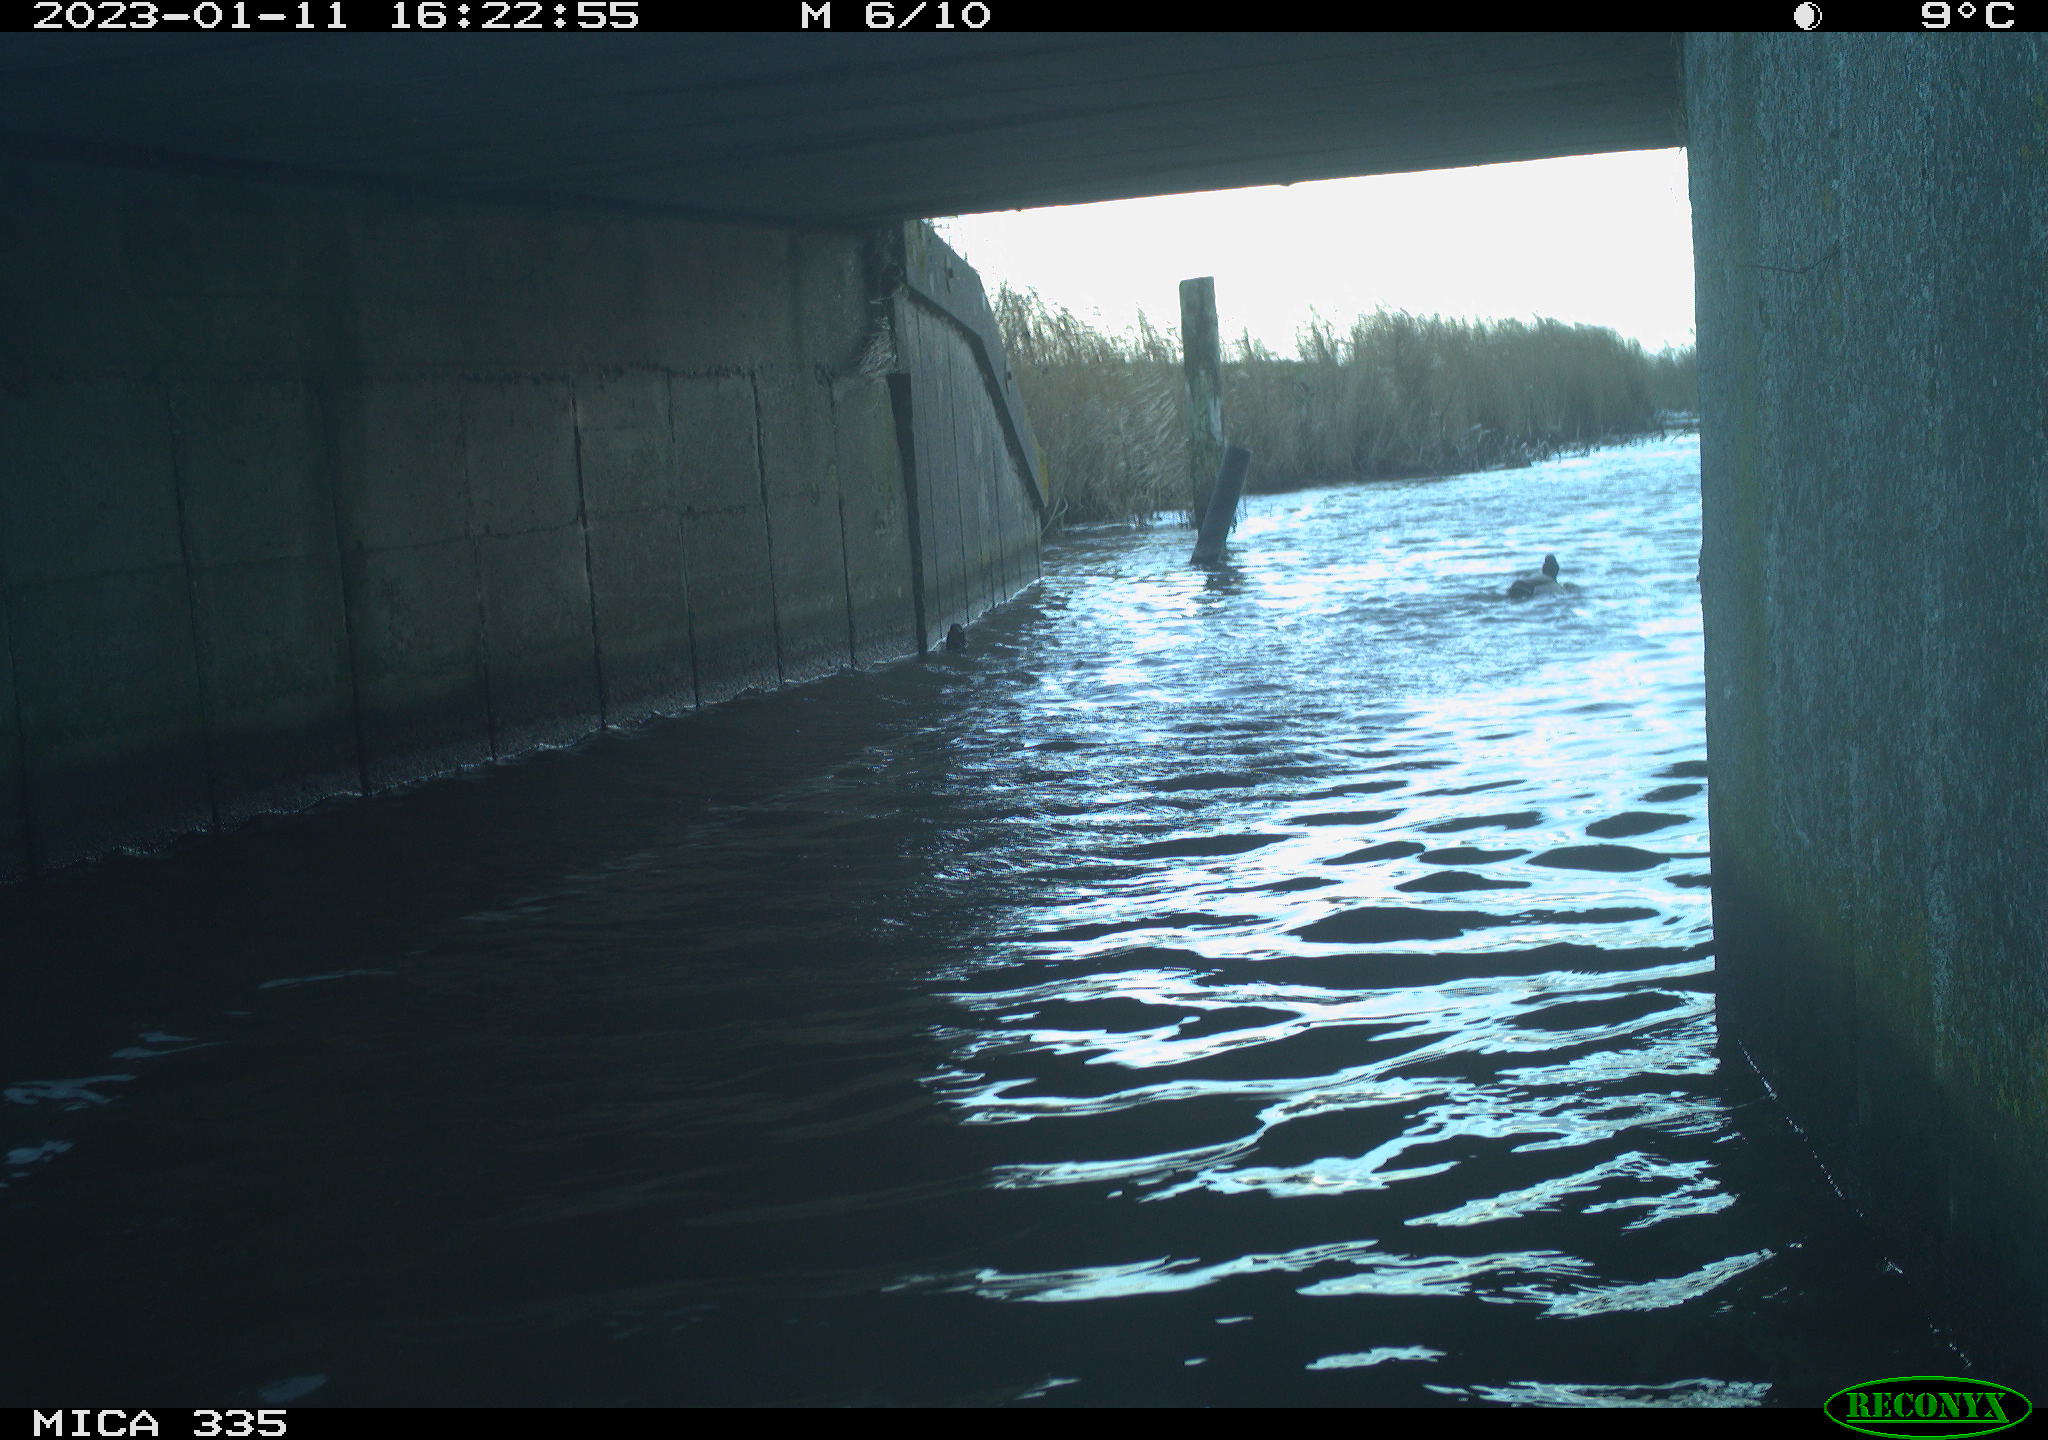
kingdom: Animalia
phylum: Chordata
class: Aves
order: Anseriformes
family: Anatidae
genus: Anas
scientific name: Anas
